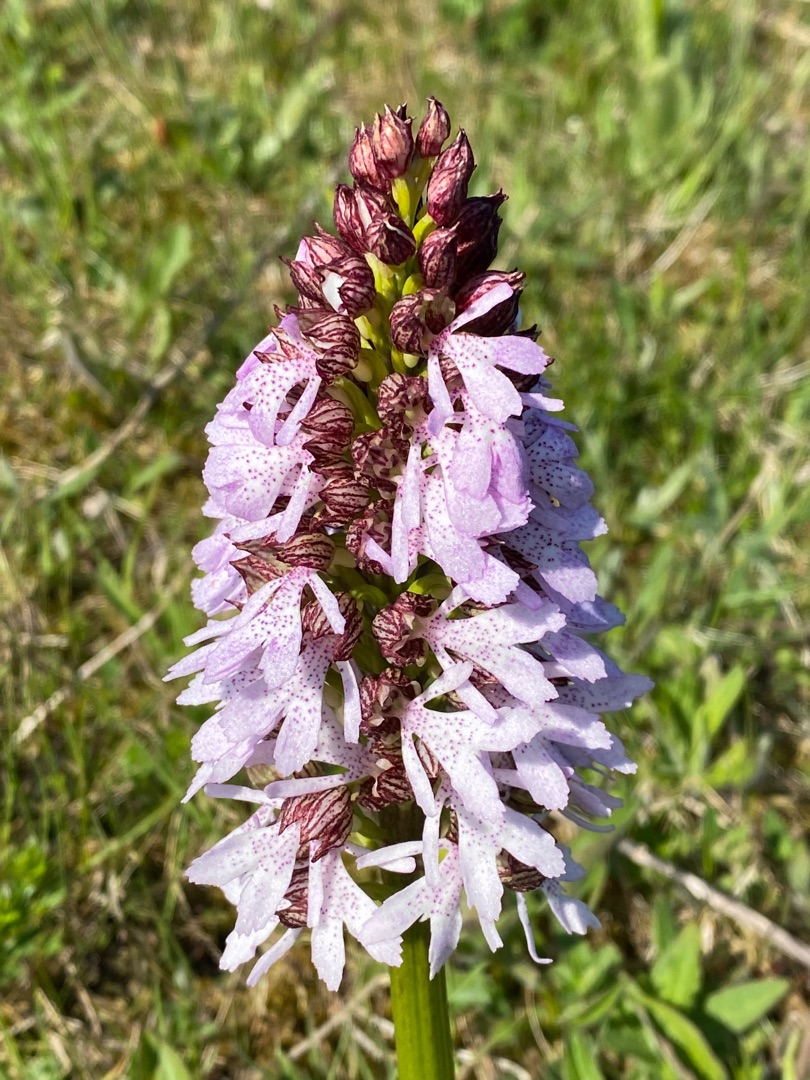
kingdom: Plantae
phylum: Tracheophyta
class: Liliopsida
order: Asparagales
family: Orchidaceae
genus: Orchis
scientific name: Orchis purpurea
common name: Stor gøgeurt
